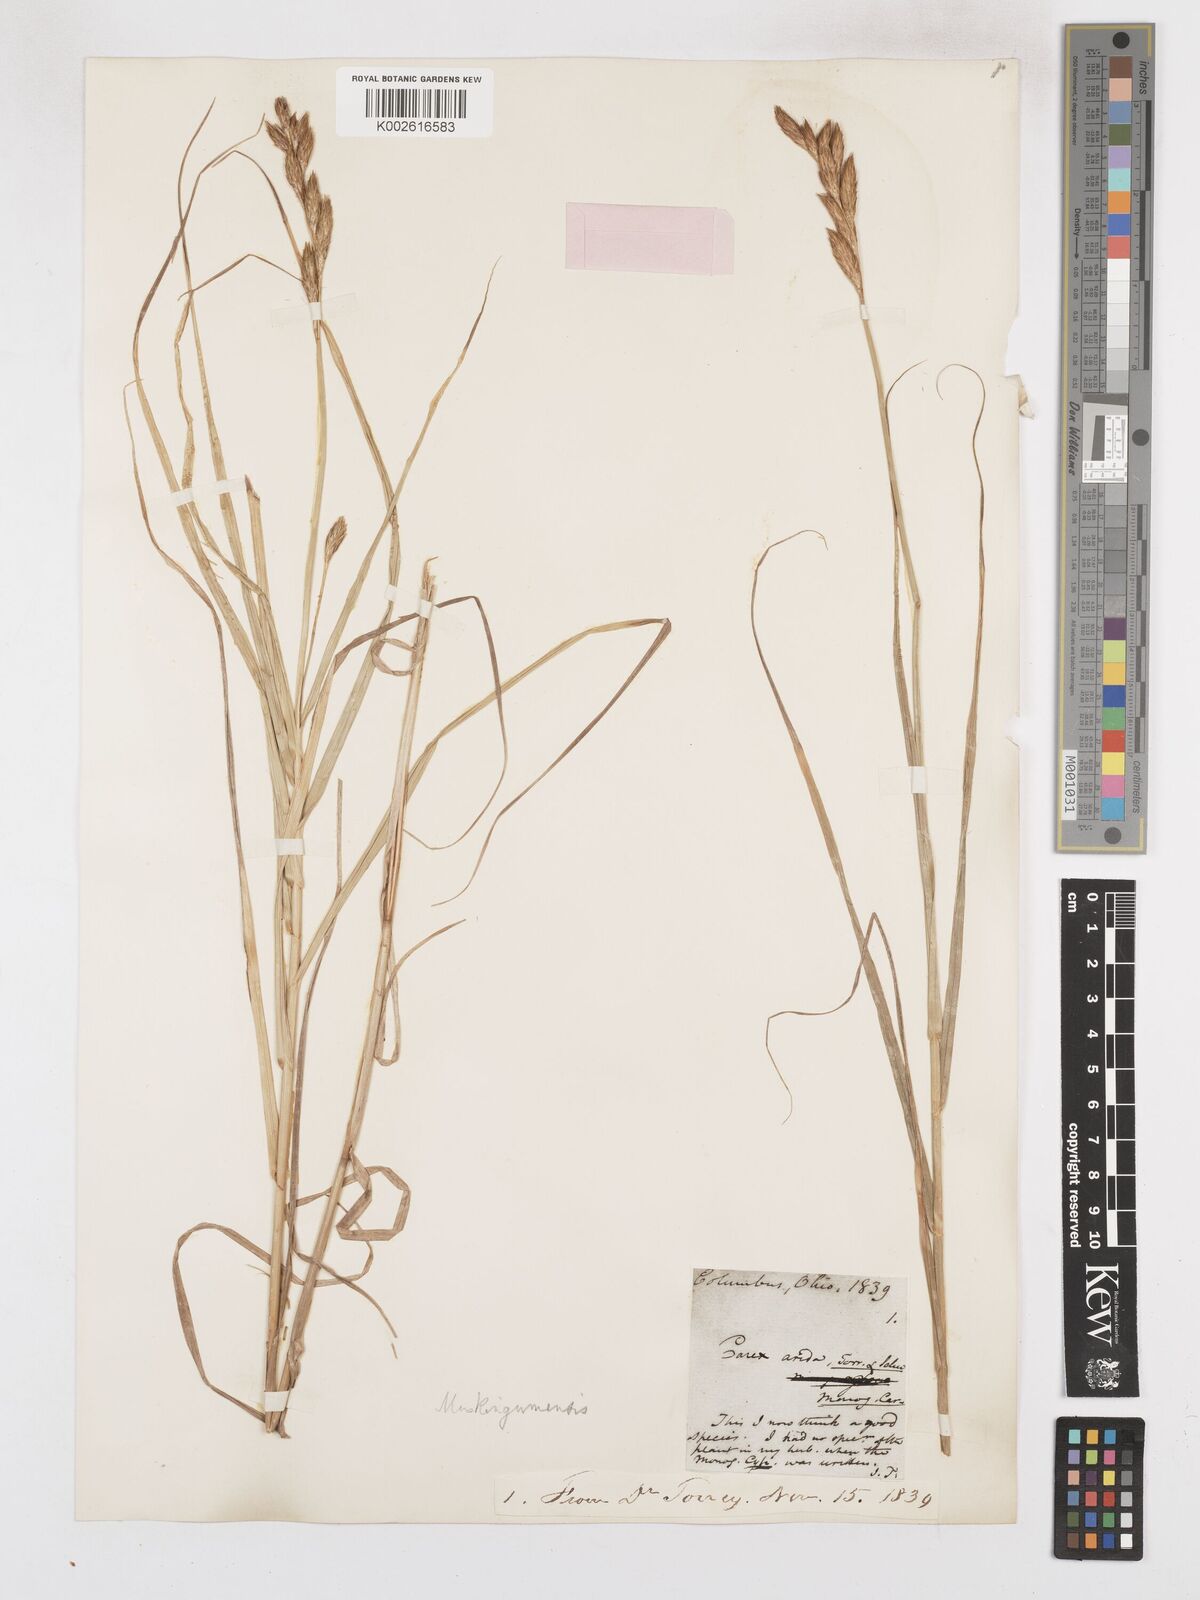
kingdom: Plantae
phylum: Tracheophyta
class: Liliopsida
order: Poales
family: Cyperaceae
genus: Carex
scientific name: Carex muskingumensis
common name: Muskingum sedge
